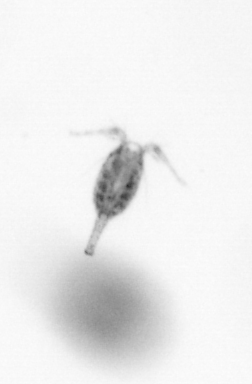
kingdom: Animalia
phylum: Arthropoda
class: Copepoda
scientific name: Copepoda
